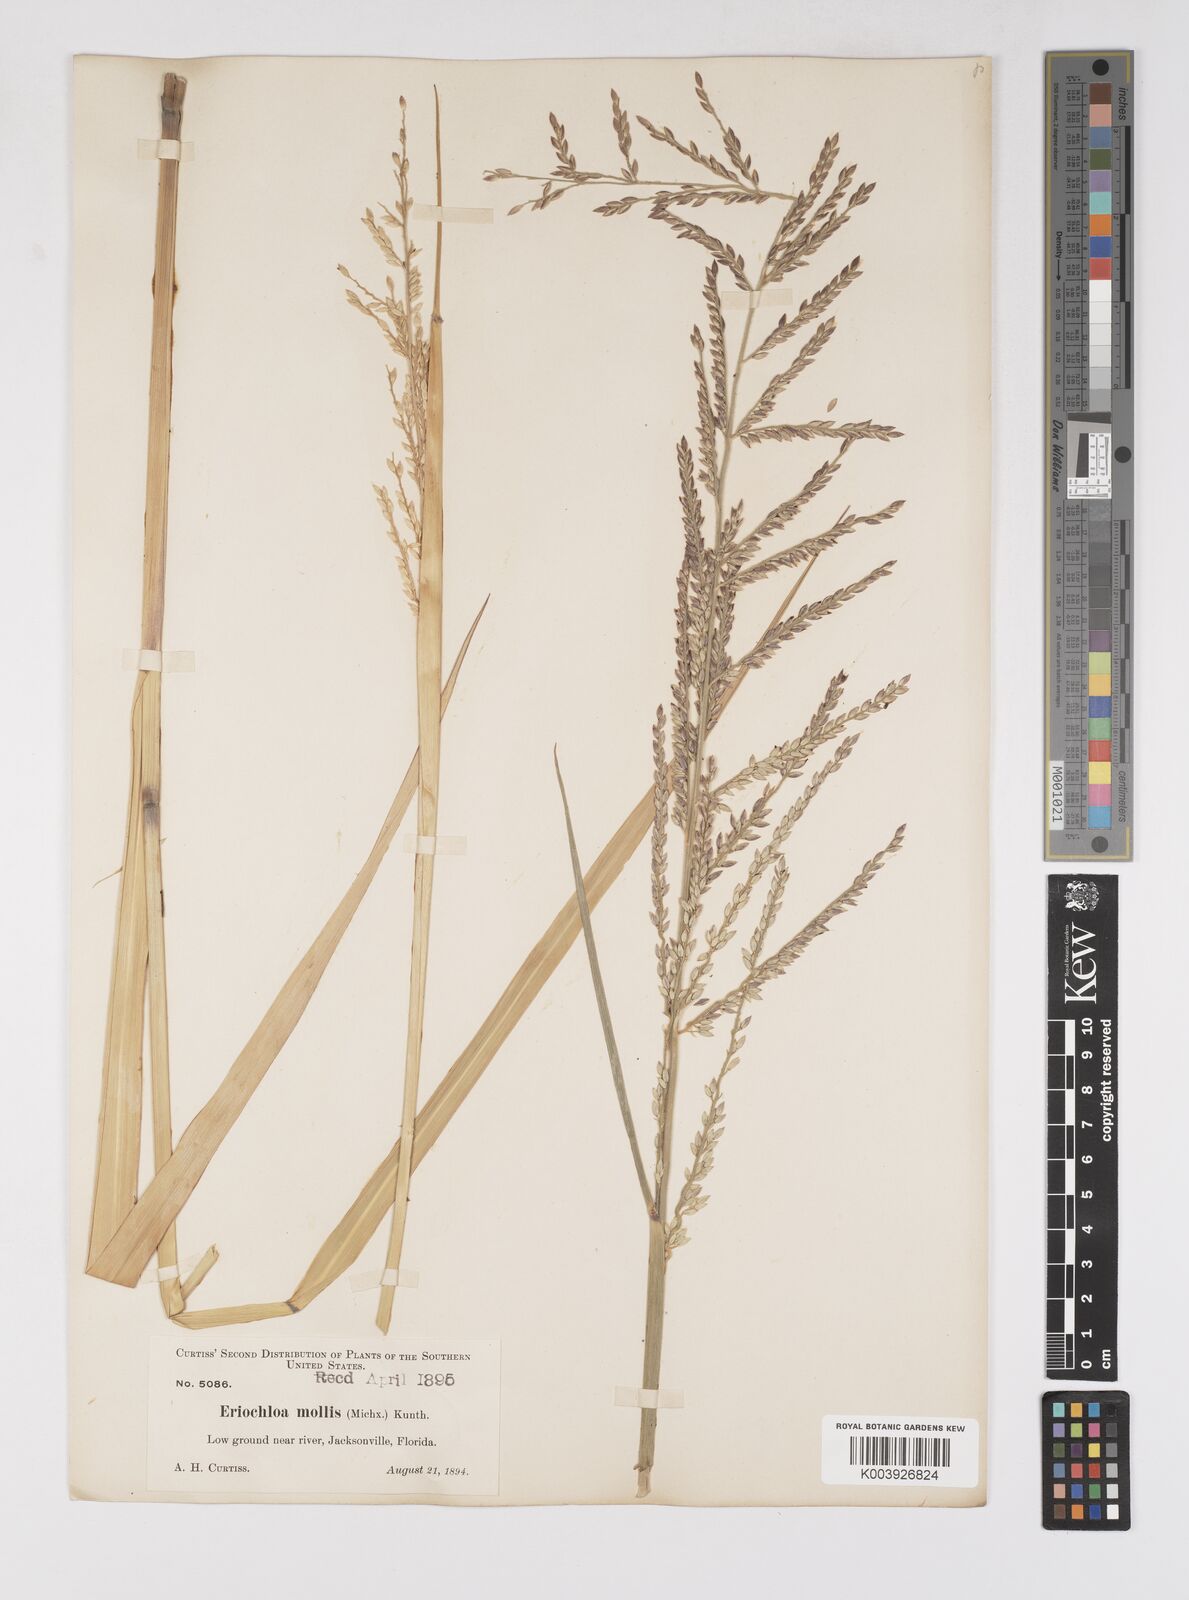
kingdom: Plantae
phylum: Tracheophyta
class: Liliopsida
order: Poales
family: Poaceae
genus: Eriochloa
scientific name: Eriochloa michauxii
